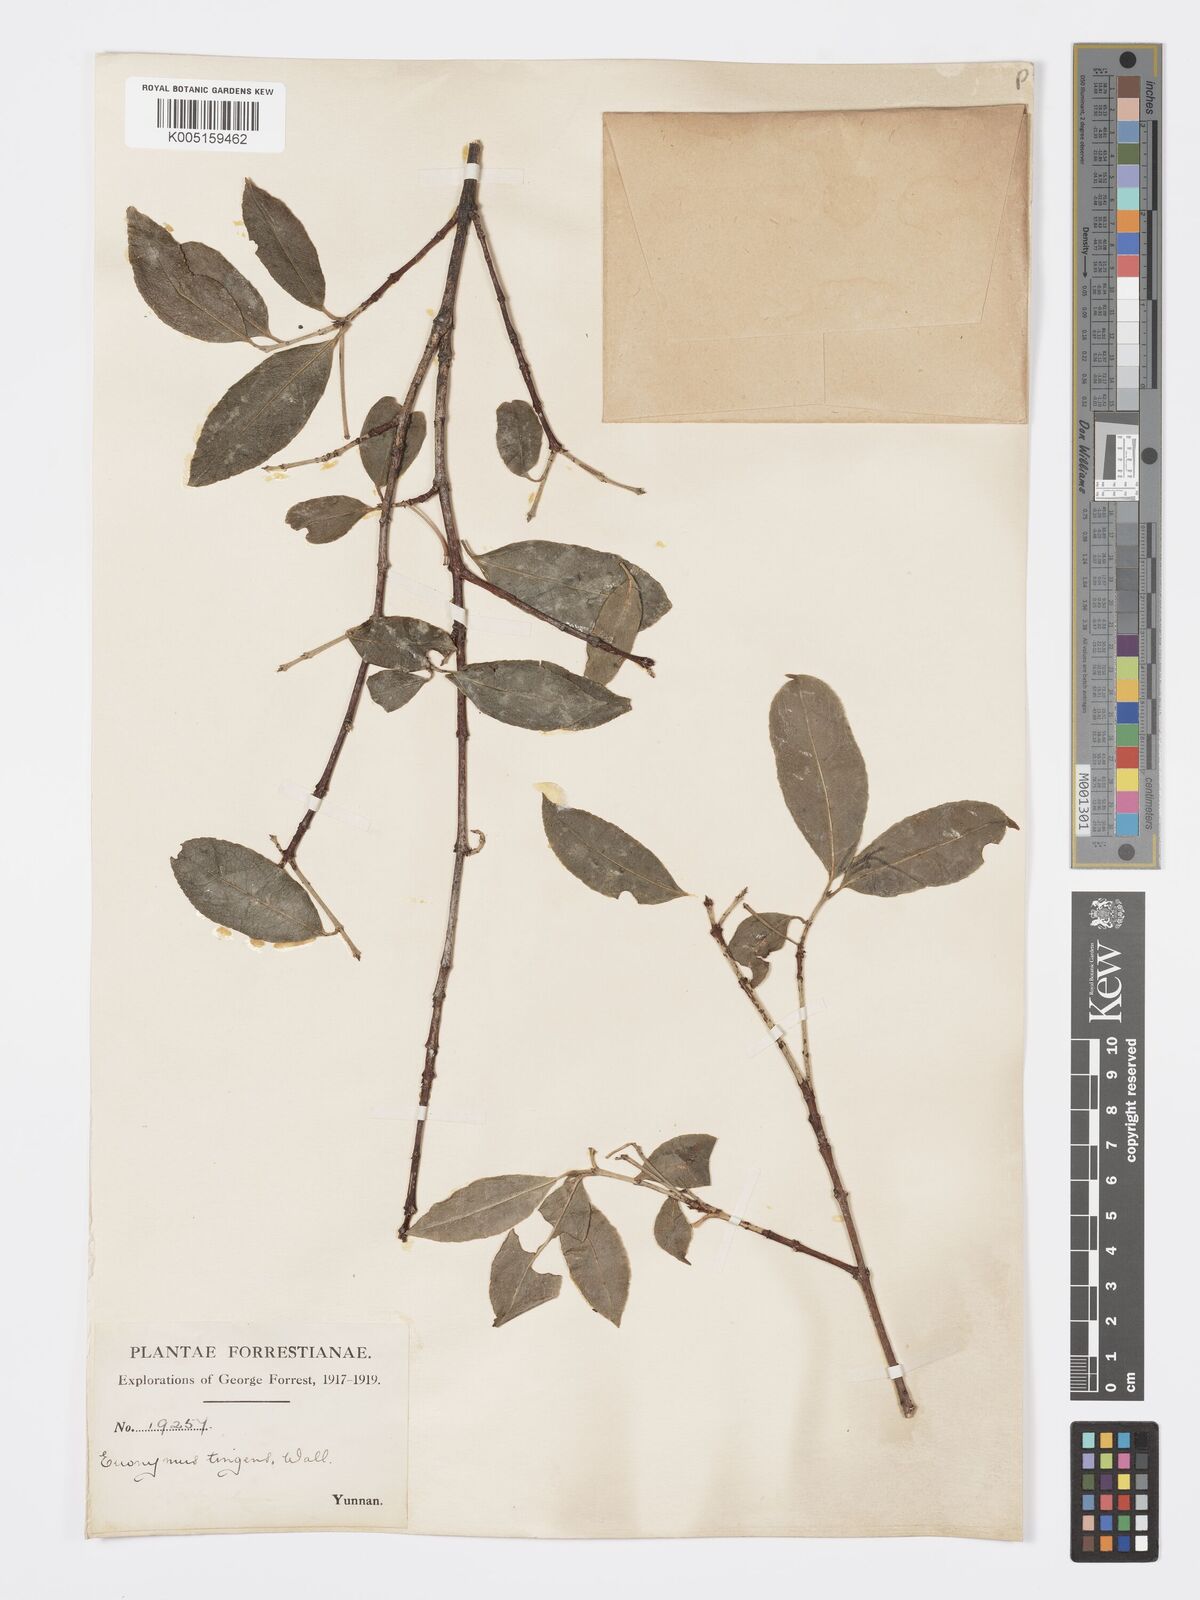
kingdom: Plantae
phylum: Tracheophyta
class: Magnoliopsida
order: Celastrales
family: Celastraceae
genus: Euonymus
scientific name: Euonymus tingens
